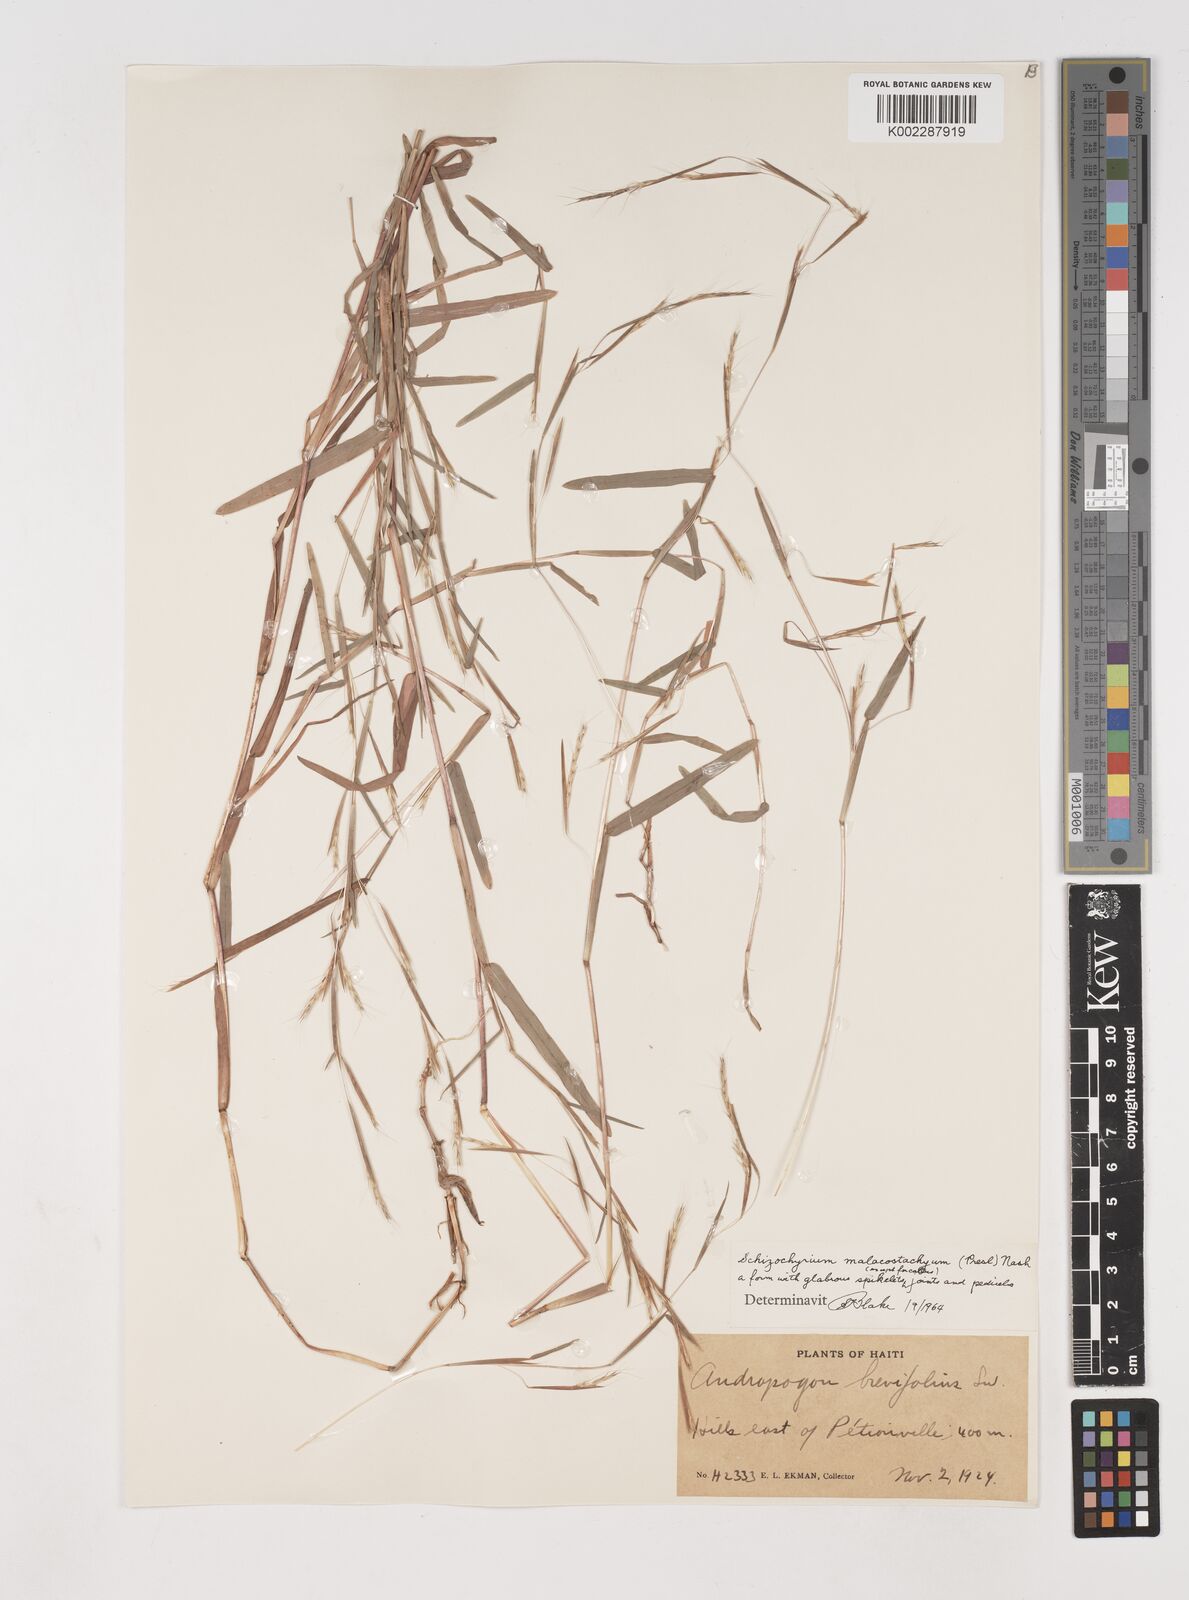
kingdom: Plantae
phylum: Tracheophyta
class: Liliopsida
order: Poales
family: Poaceae
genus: Schizachyrium
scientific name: Schizachyrium malacostachyum
